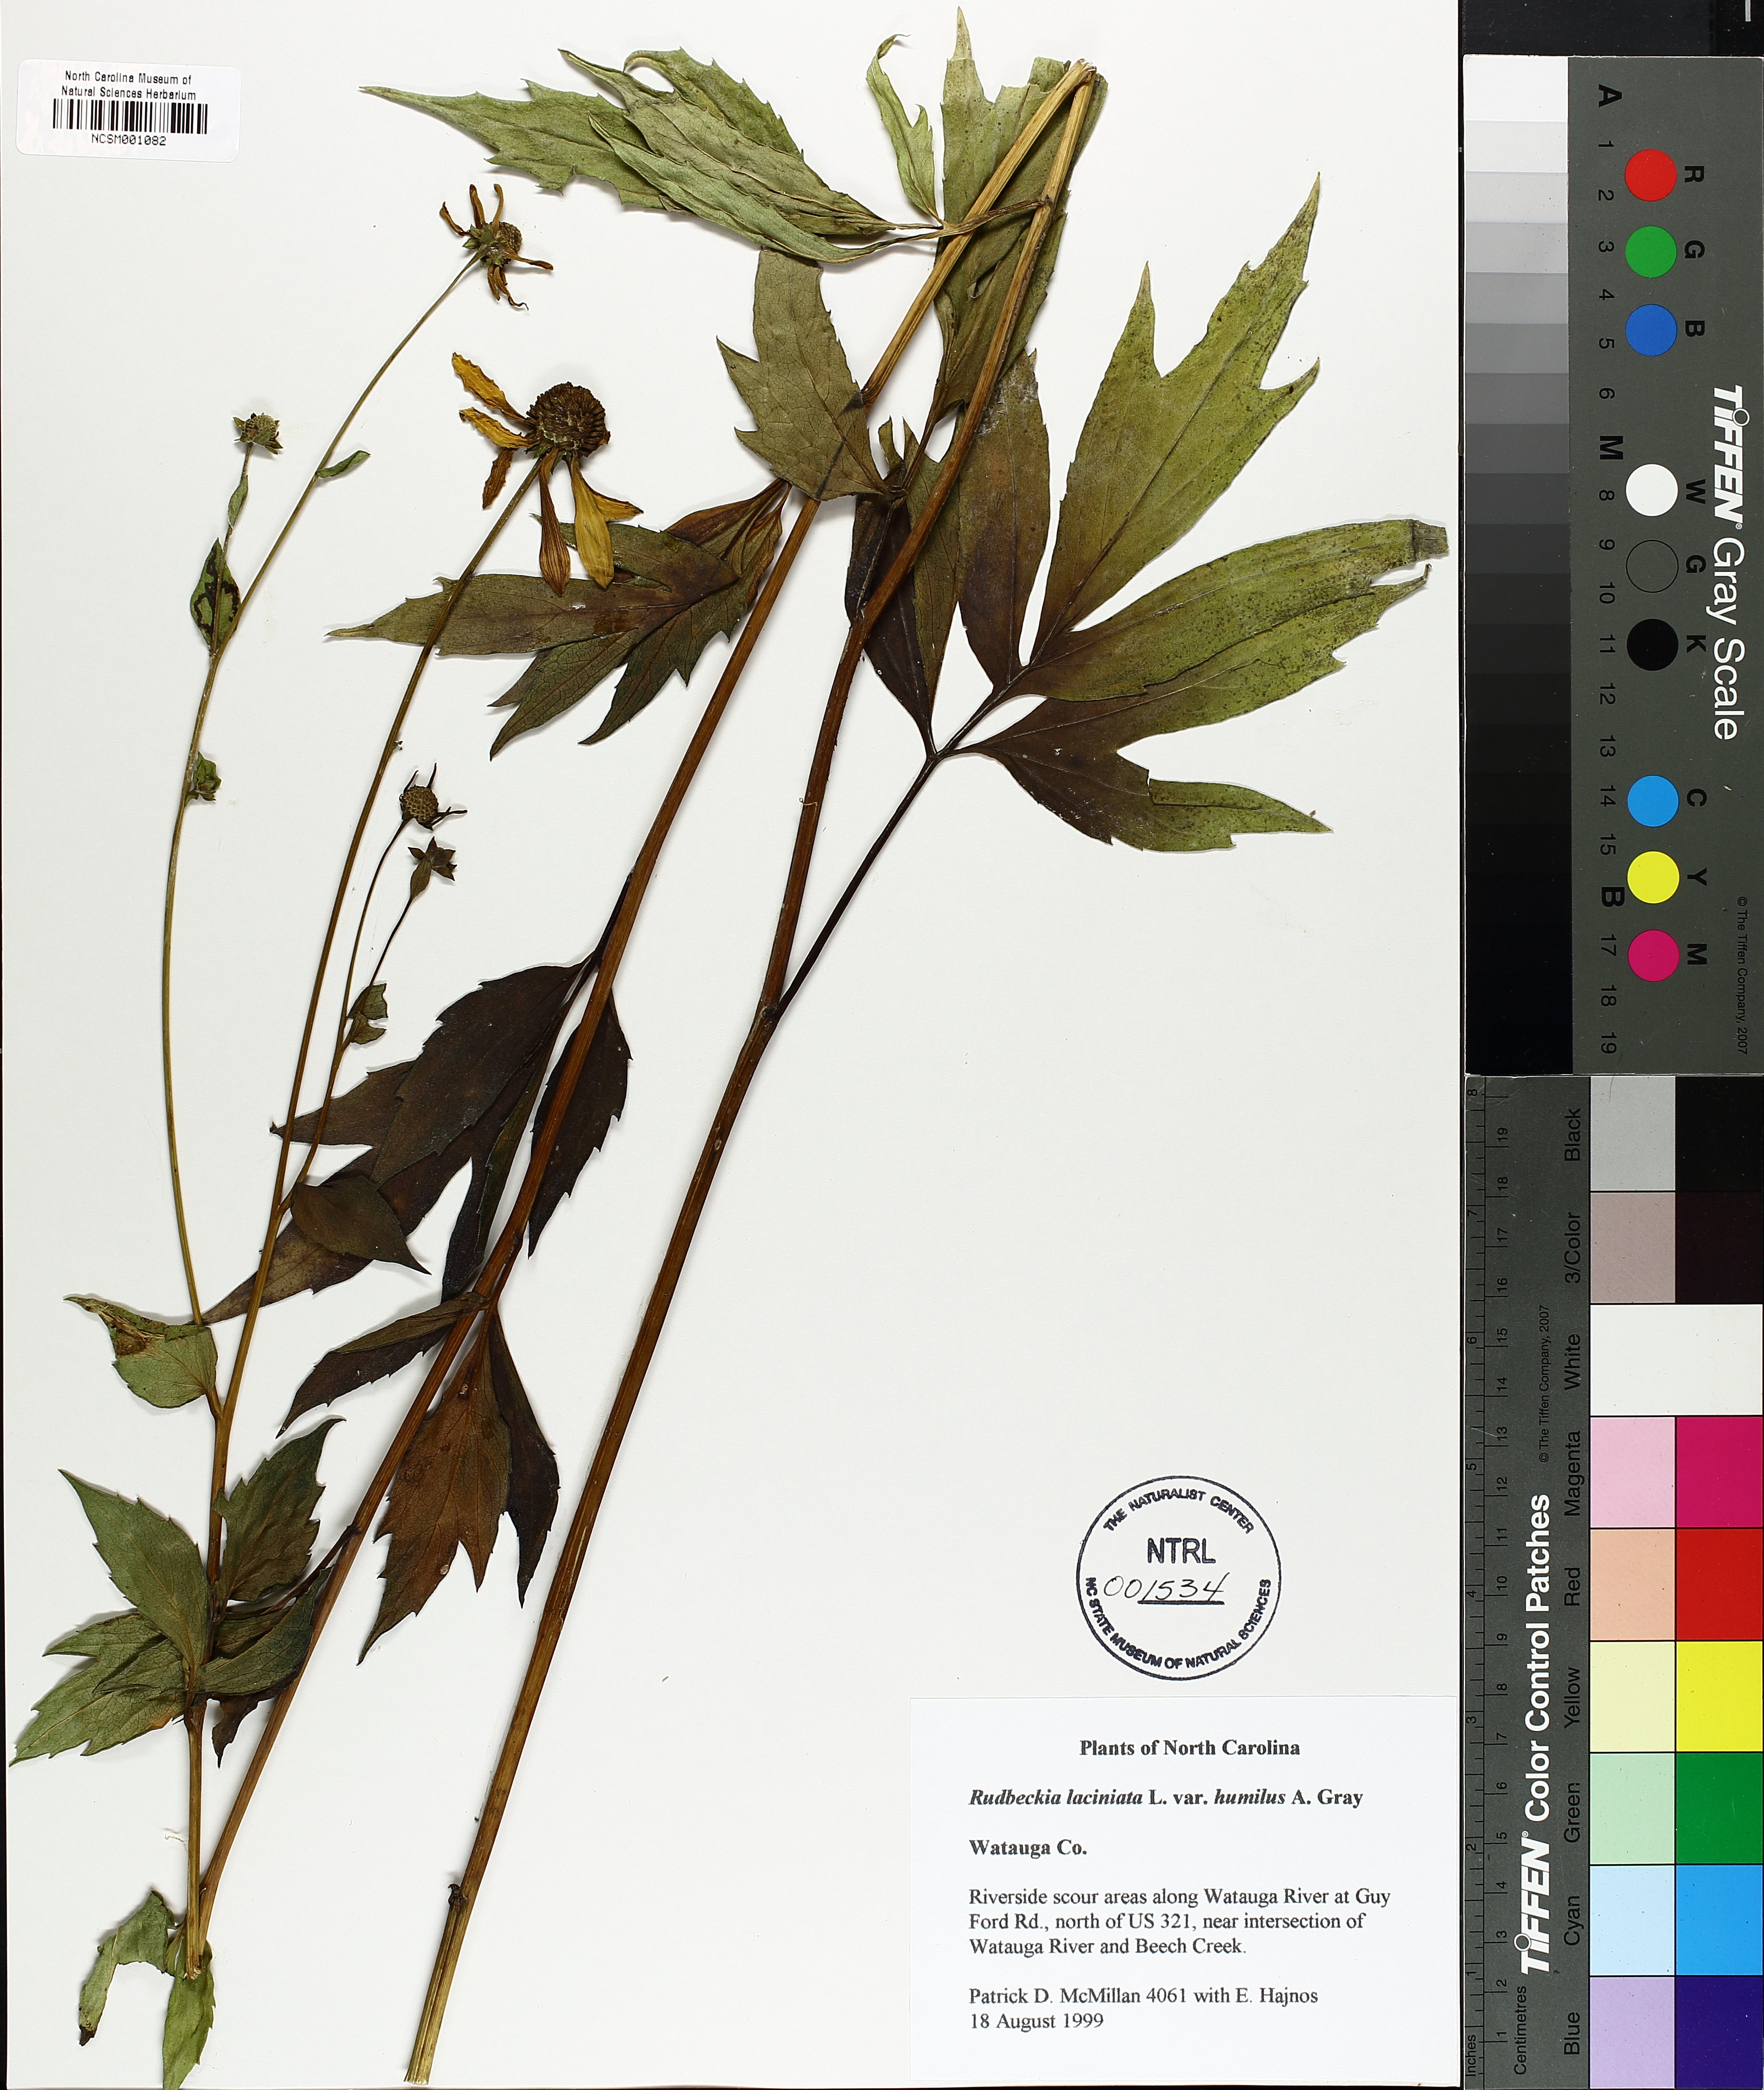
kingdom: Plantae
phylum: Tracheophyta
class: Magnoliopsida
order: Asterales
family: Asteraceae
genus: Rudbeckia
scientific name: Rudbeckia laciniata
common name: Coneflower
